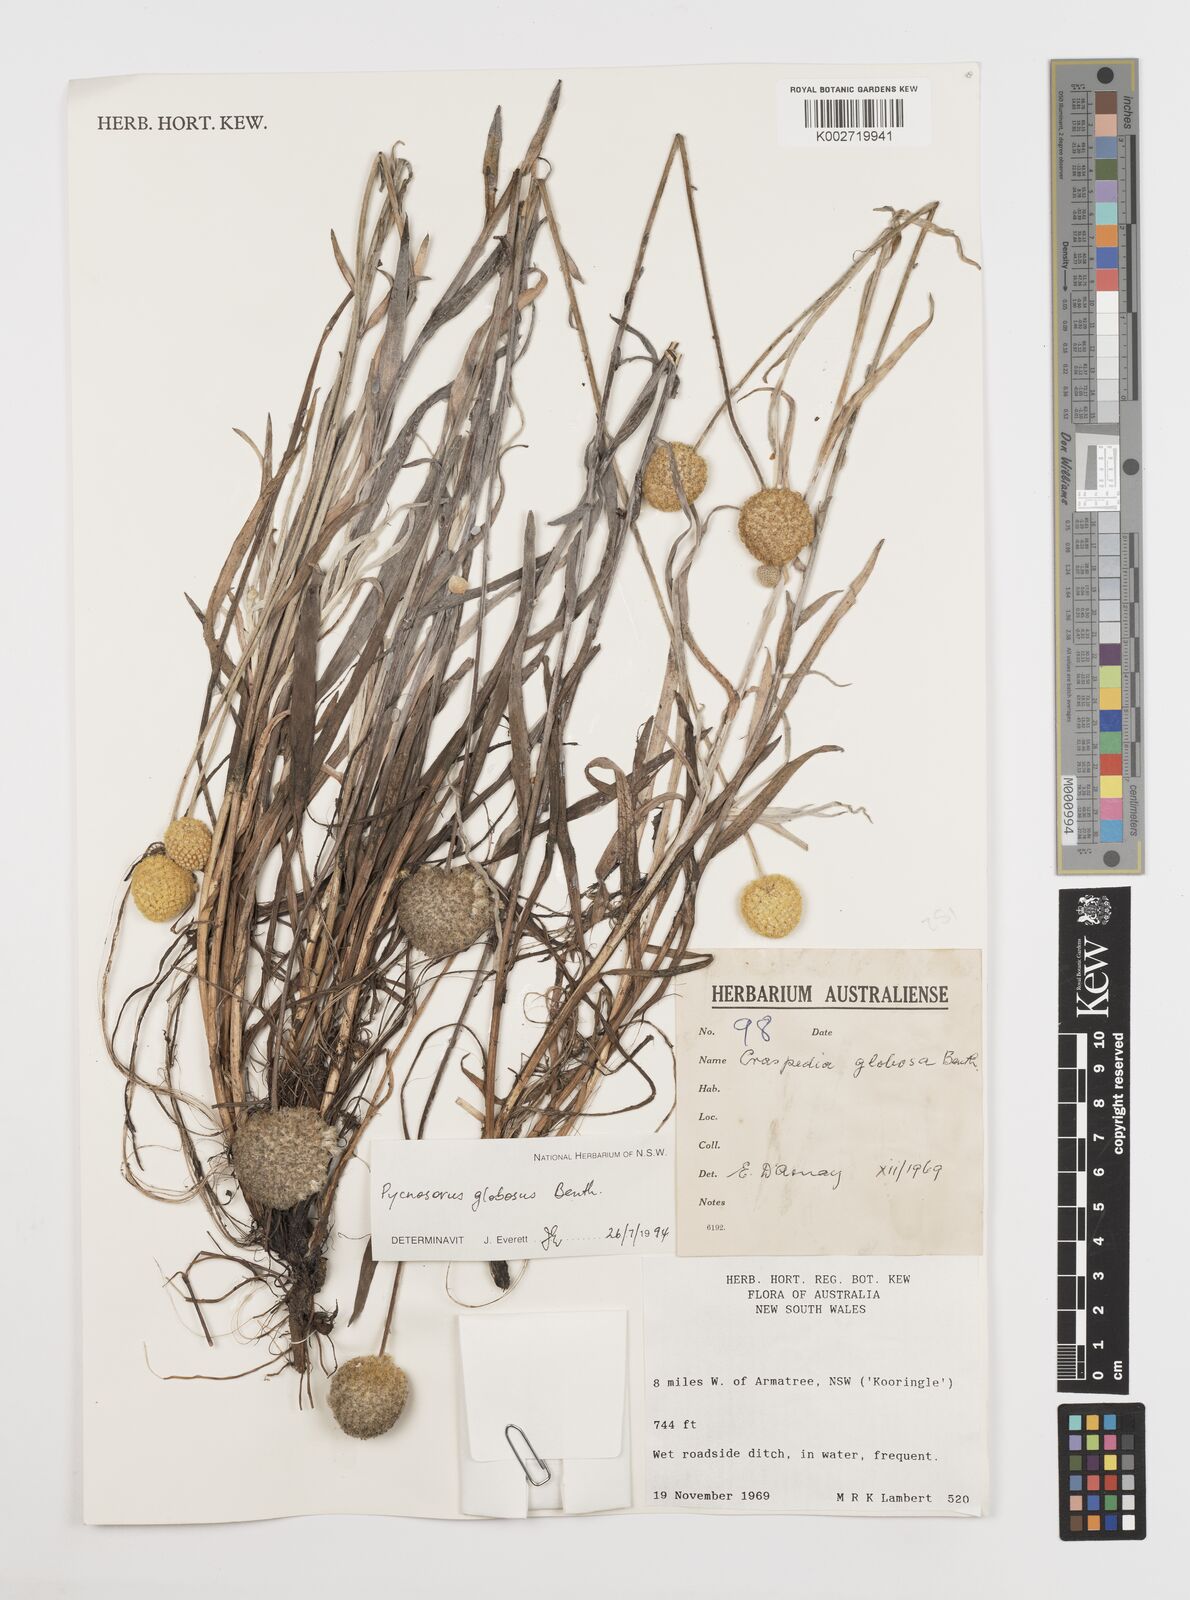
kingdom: Plantae
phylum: Tracheophyta
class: Magnoliopsida
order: Asterales
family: Asteraceae
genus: Pycnosorus
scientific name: Pycnosorus globosus
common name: Drumsticks
